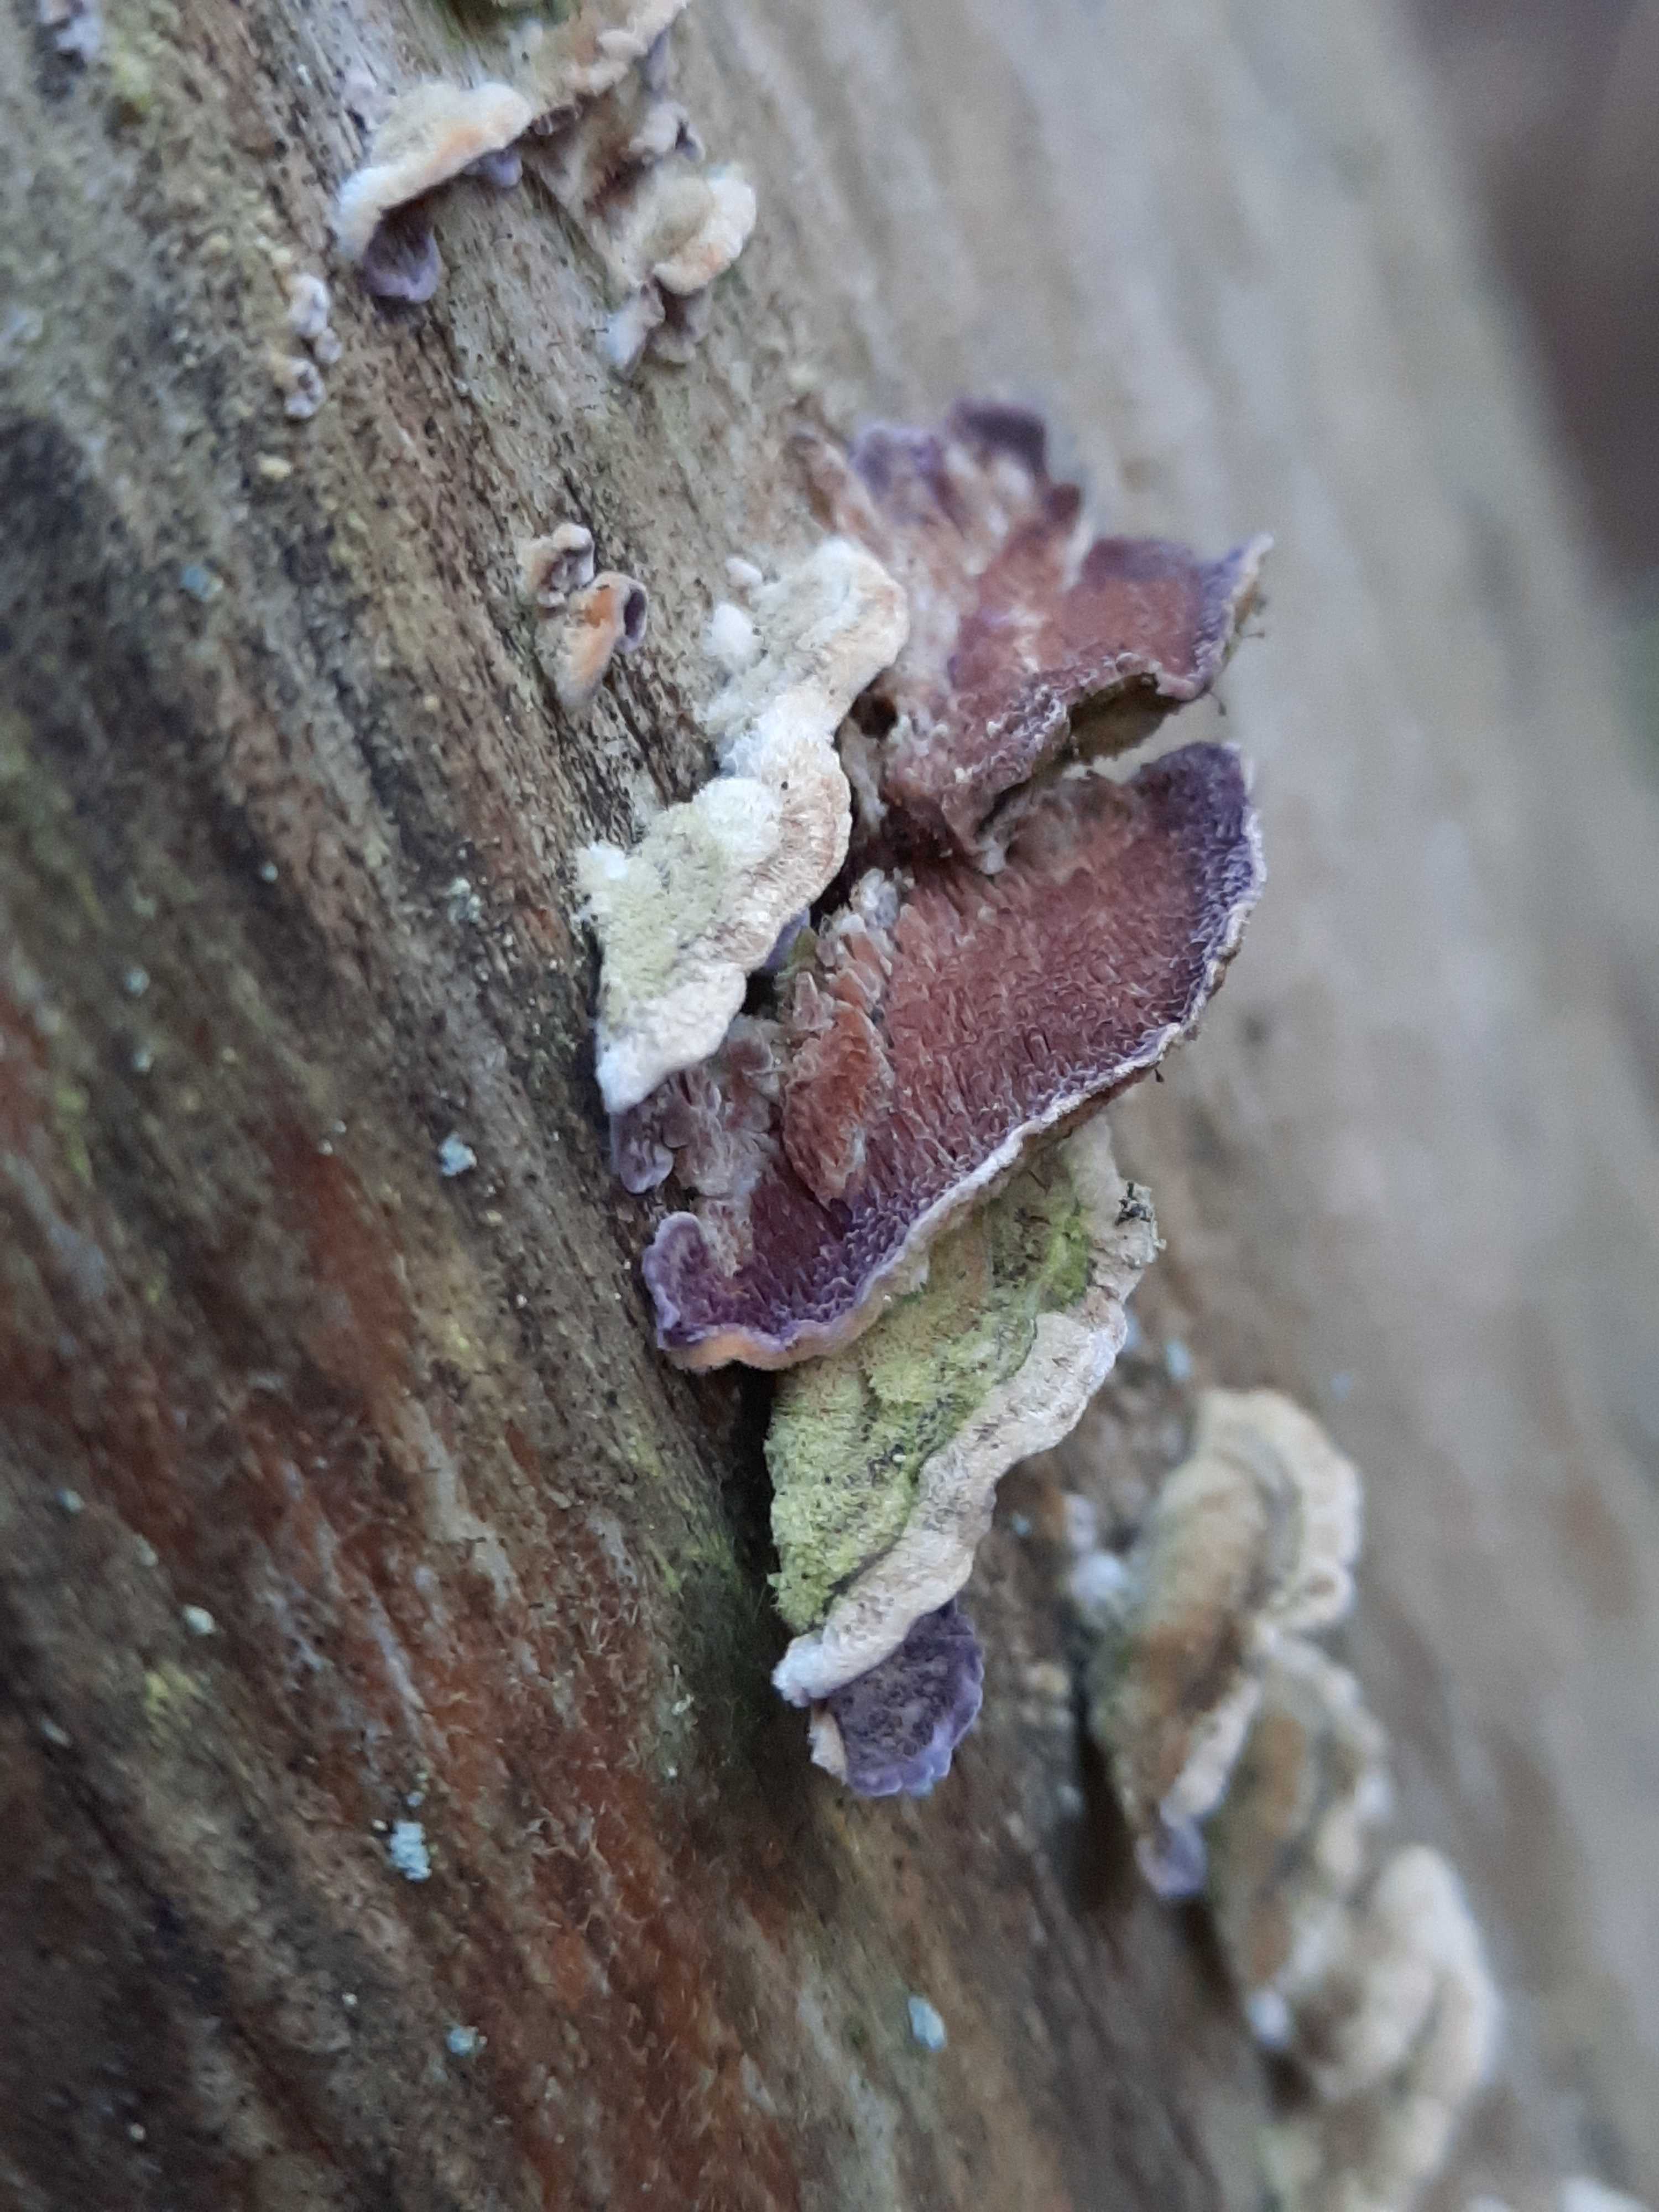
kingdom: Fungi
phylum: Basidiomycota
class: Agaricomycetes
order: Hymenochaetales
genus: Trichaptum
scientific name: Trichaptum fuscoviolaceum
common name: tandet violporesvamp
